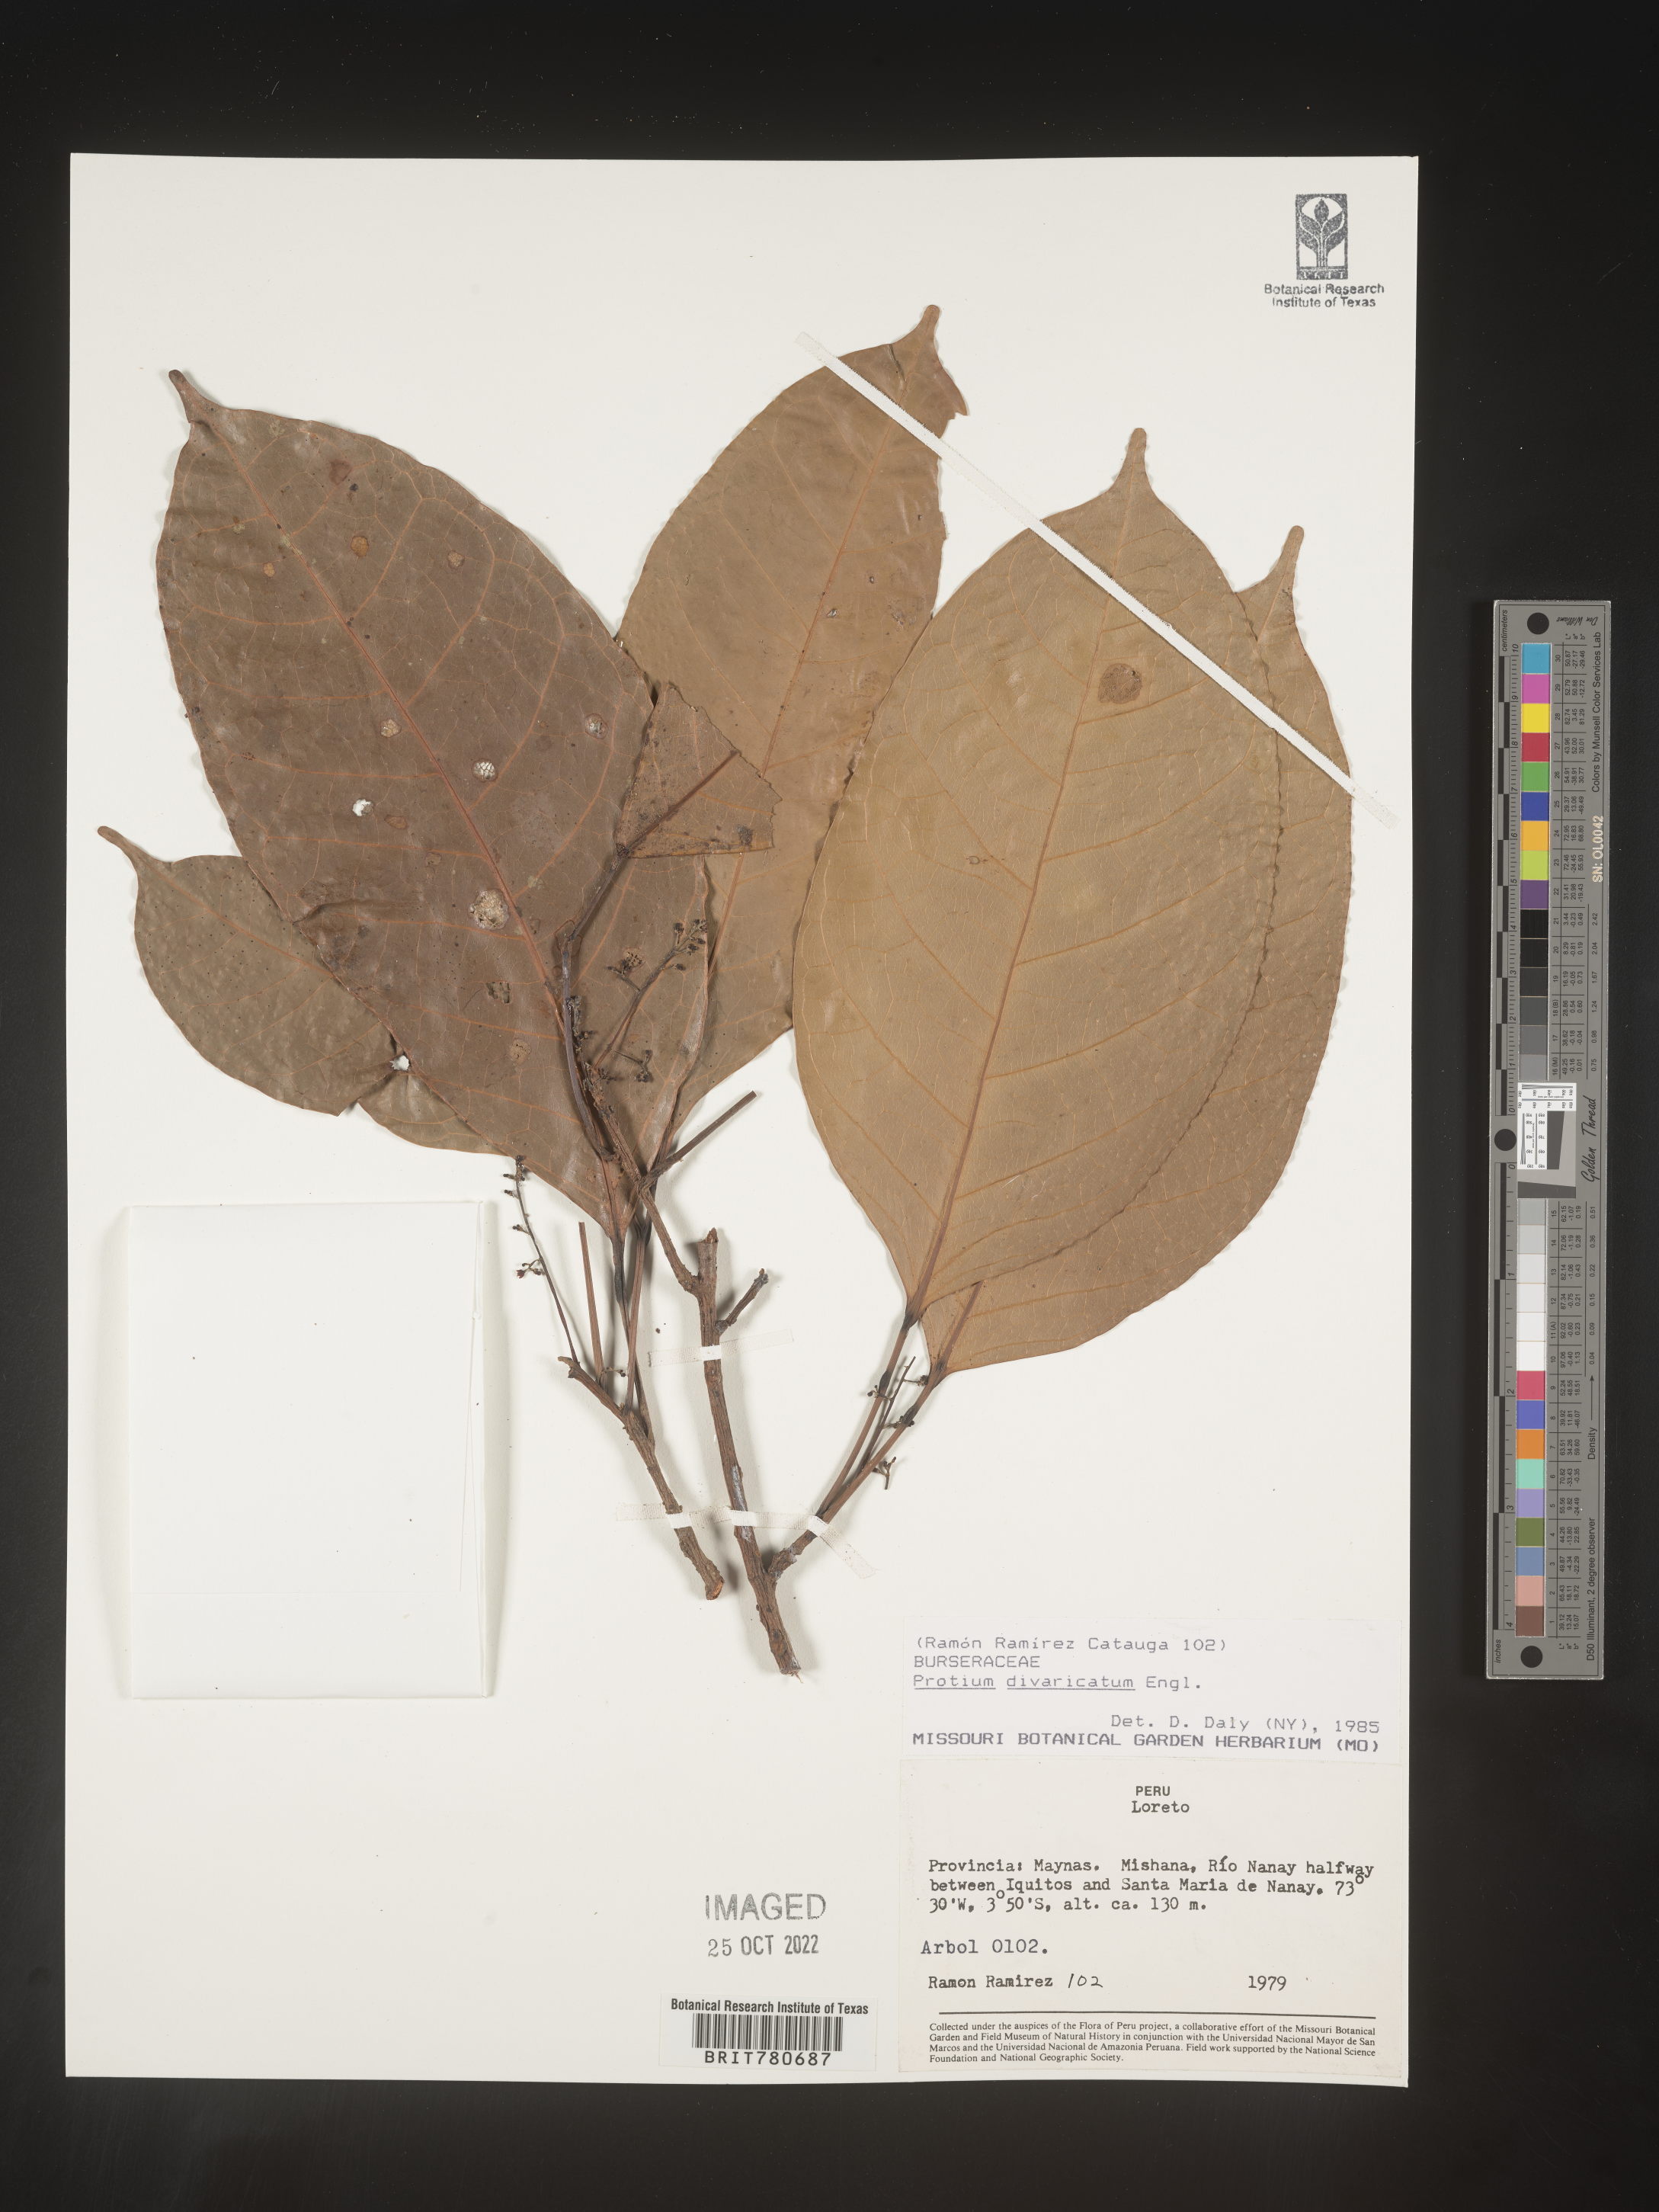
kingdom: Plantae
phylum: Tracheophyta
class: Magnoliopsida
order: Sapindales
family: Burseraceae
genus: Protium
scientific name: Protium
